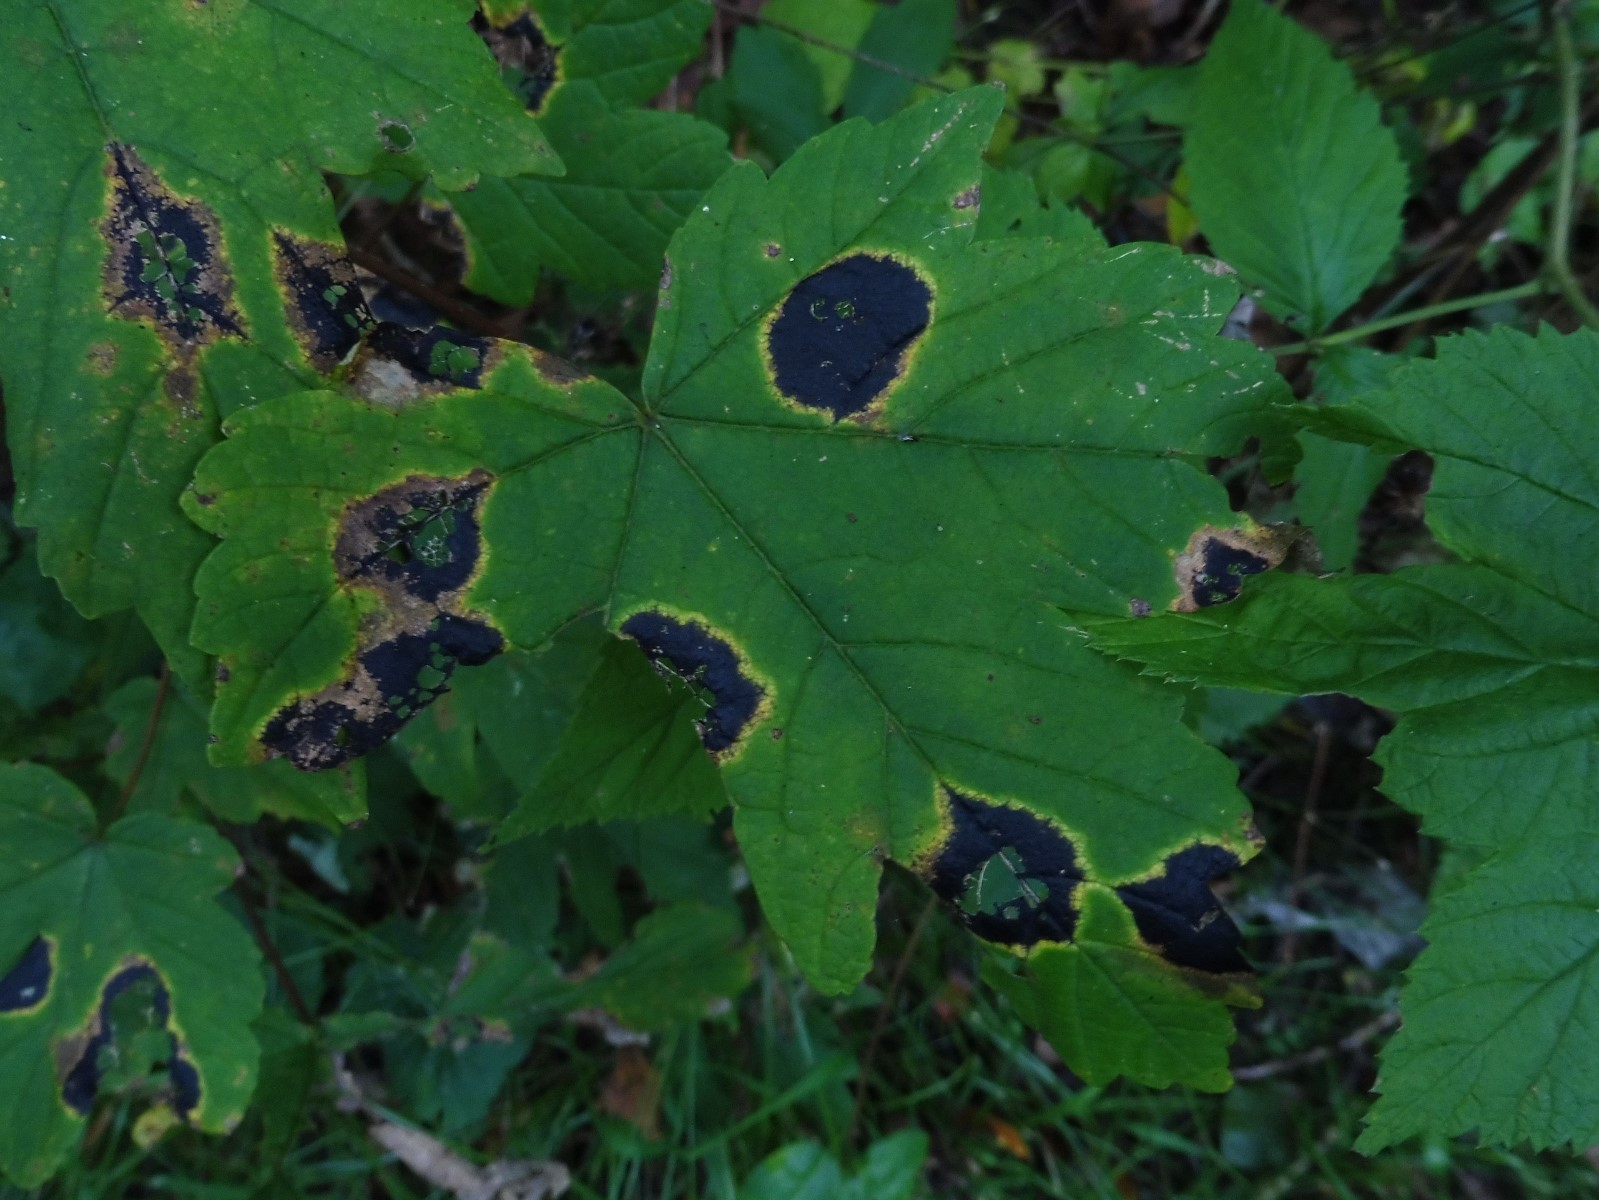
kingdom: Fungi
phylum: Ascomycota
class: Leotiomycetes
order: Rhytismatales
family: Rhytismataceae
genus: Rhytisma
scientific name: Rhytisma acerinum
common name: ahorn-rynkeplet
